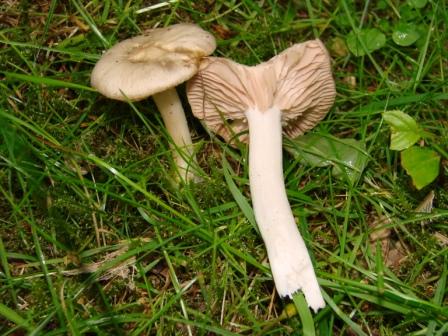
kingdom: Fungi
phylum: Basidiomycota
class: Agaricomycetes
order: Agaricales
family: Entolomataceae
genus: Entoloma
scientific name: Entoloma sepium
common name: slåen-rødblad
